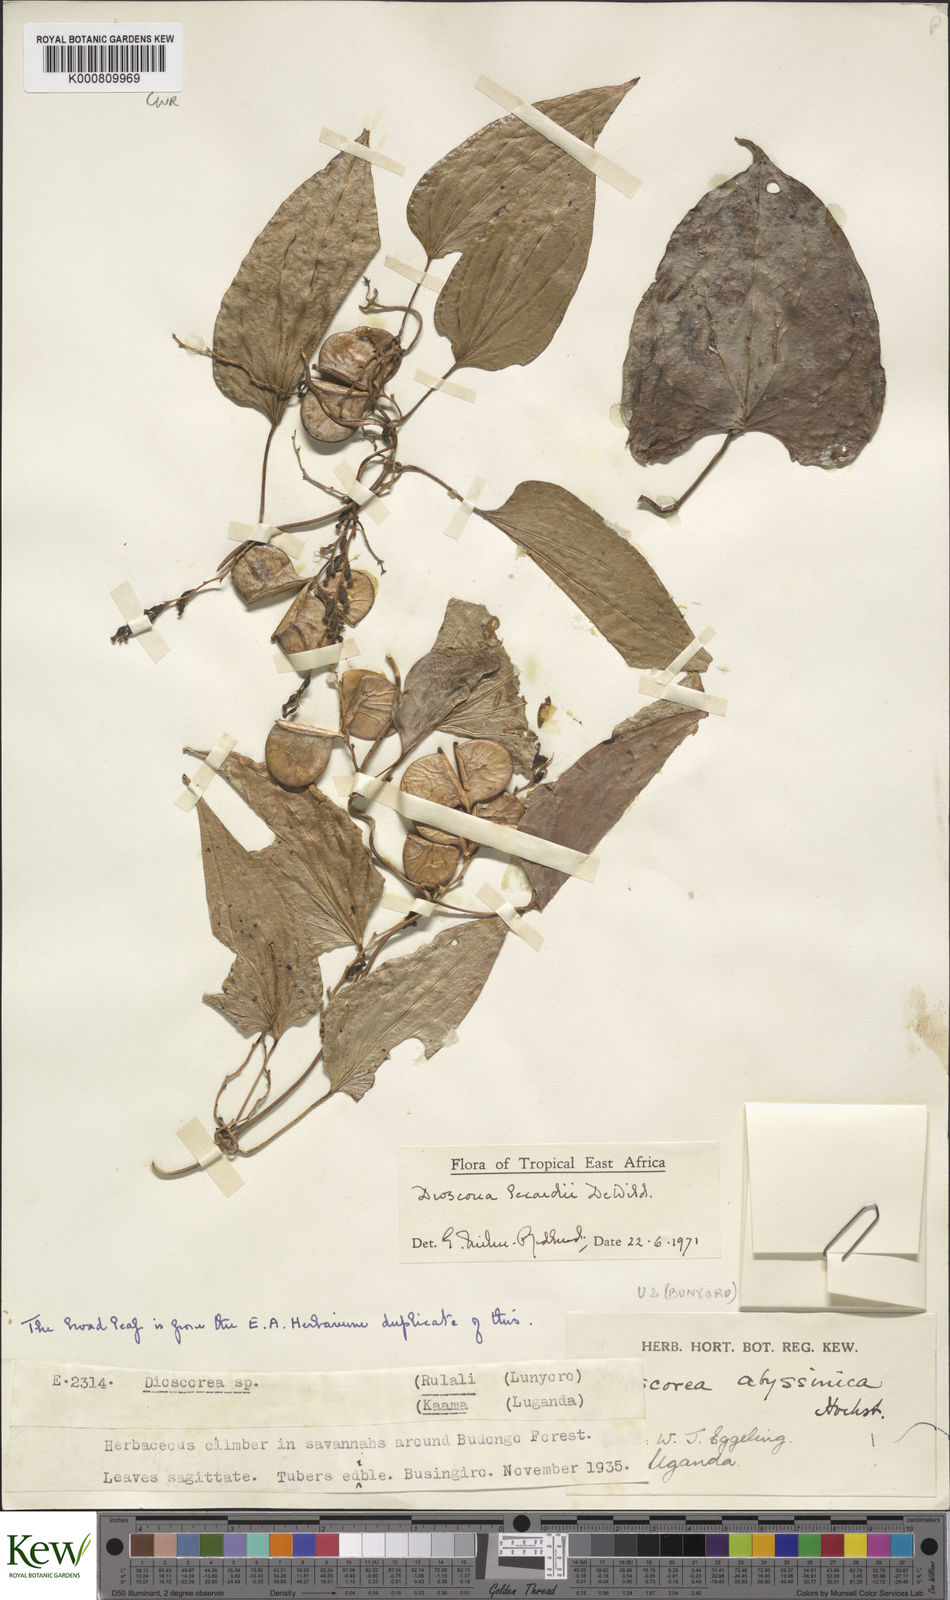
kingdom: Plantae
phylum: Tracheophyta
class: Liliopsida
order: Dioscoreales
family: Dioscoreaceae
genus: Dioscorea
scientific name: Dioscorea sagittifolia
